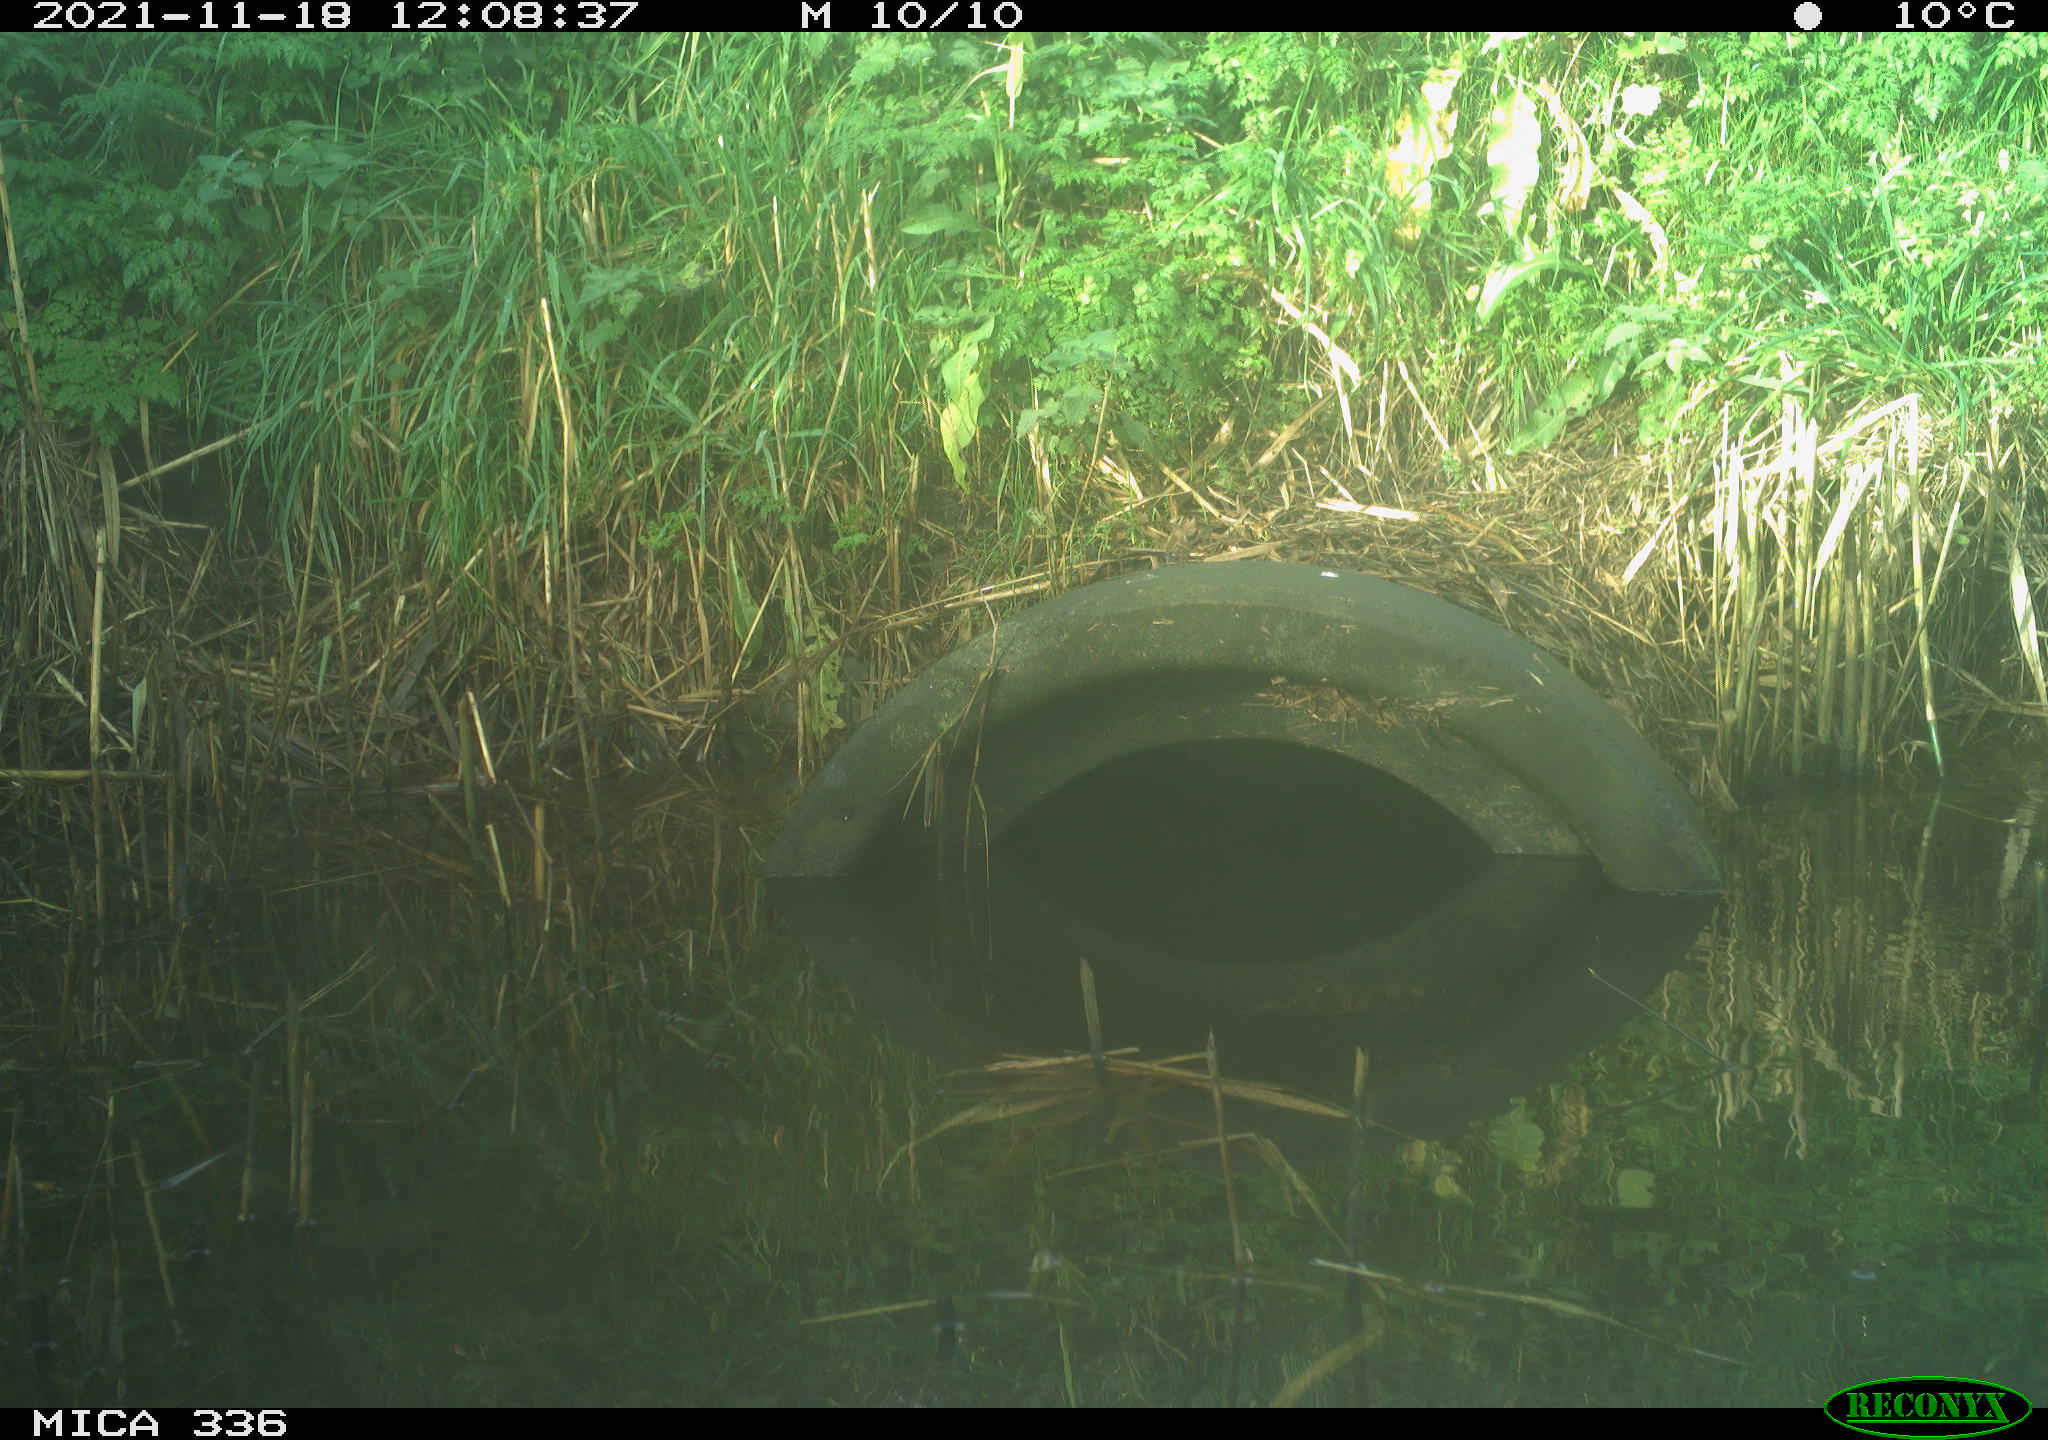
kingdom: Animalia
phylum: Chordata
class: Aves
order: Gruiformes
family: Rallidae
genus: Gallinula
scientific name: Gallinula chloropus
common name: Common moorhen
